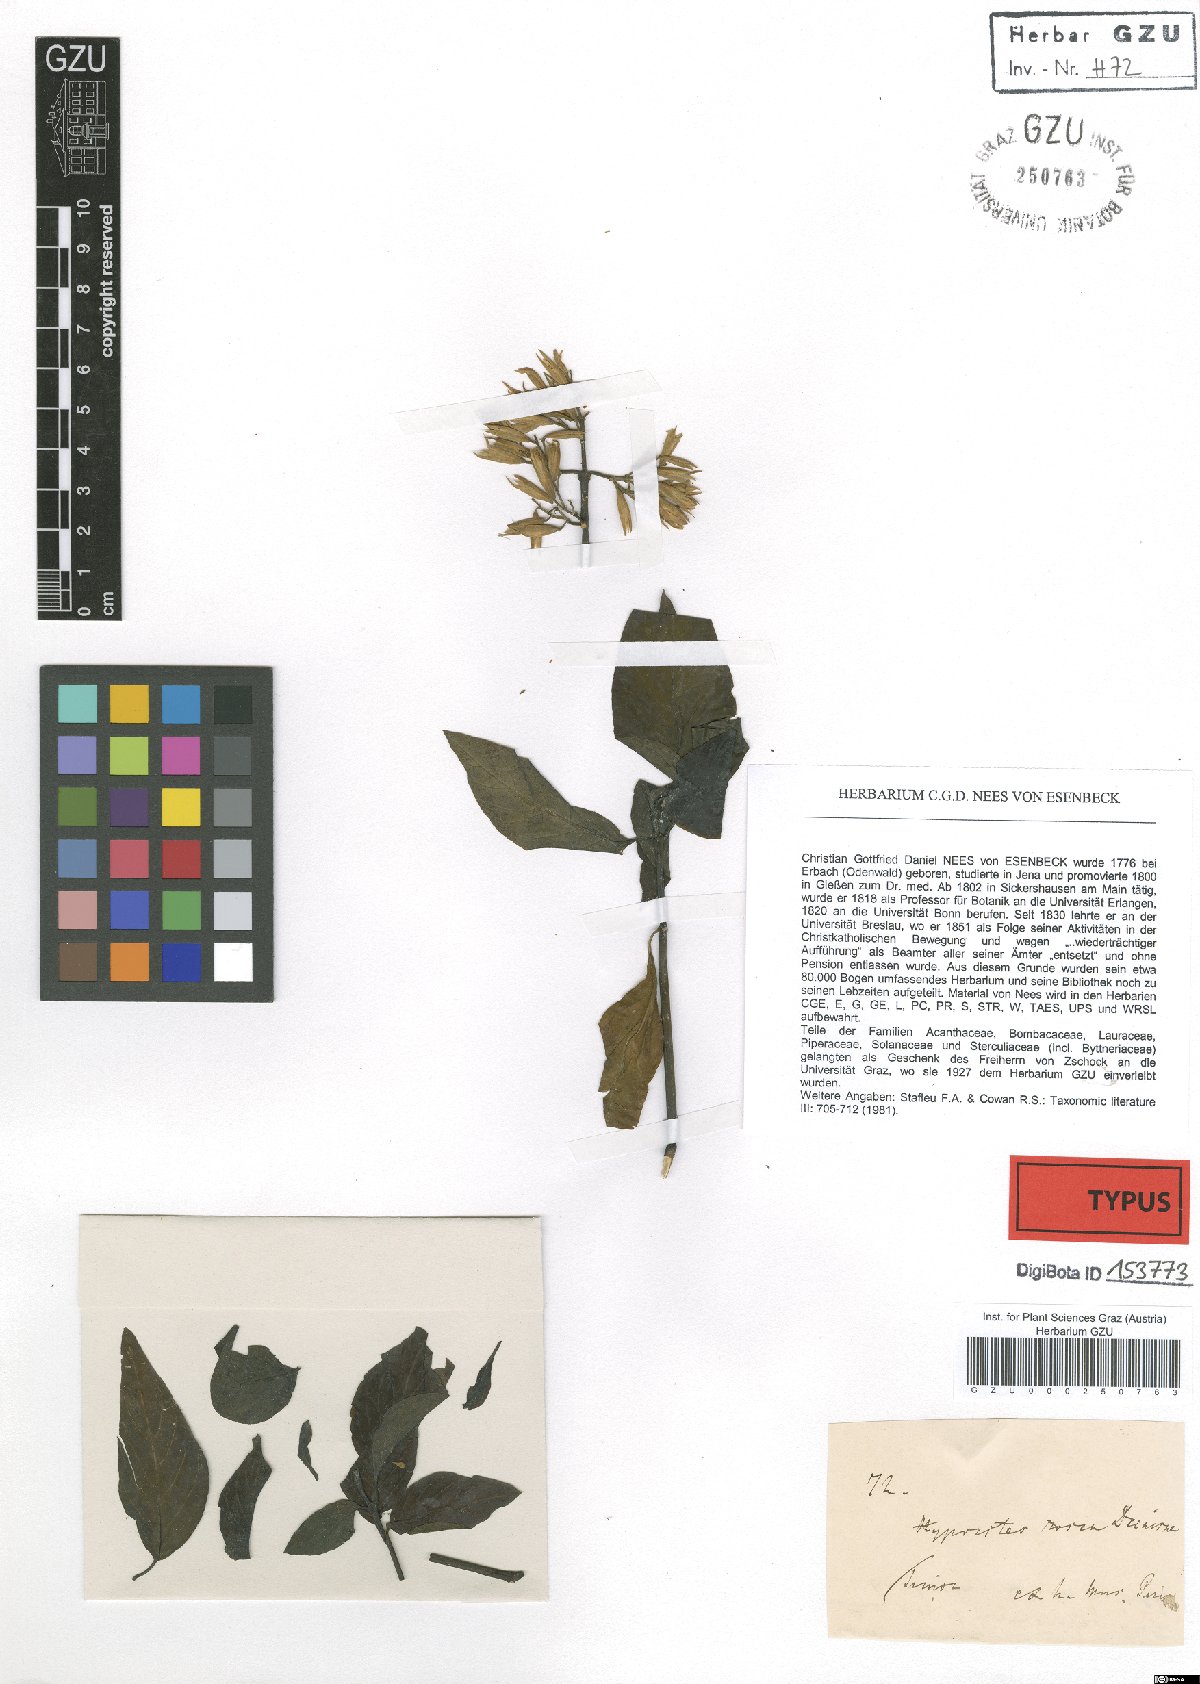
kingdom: Plantae
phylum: Tracheophyta
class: Magnoliopsida
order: Lamiales
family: Acanthaceae
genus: Hypoestes
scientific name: Hypoestes rosea
